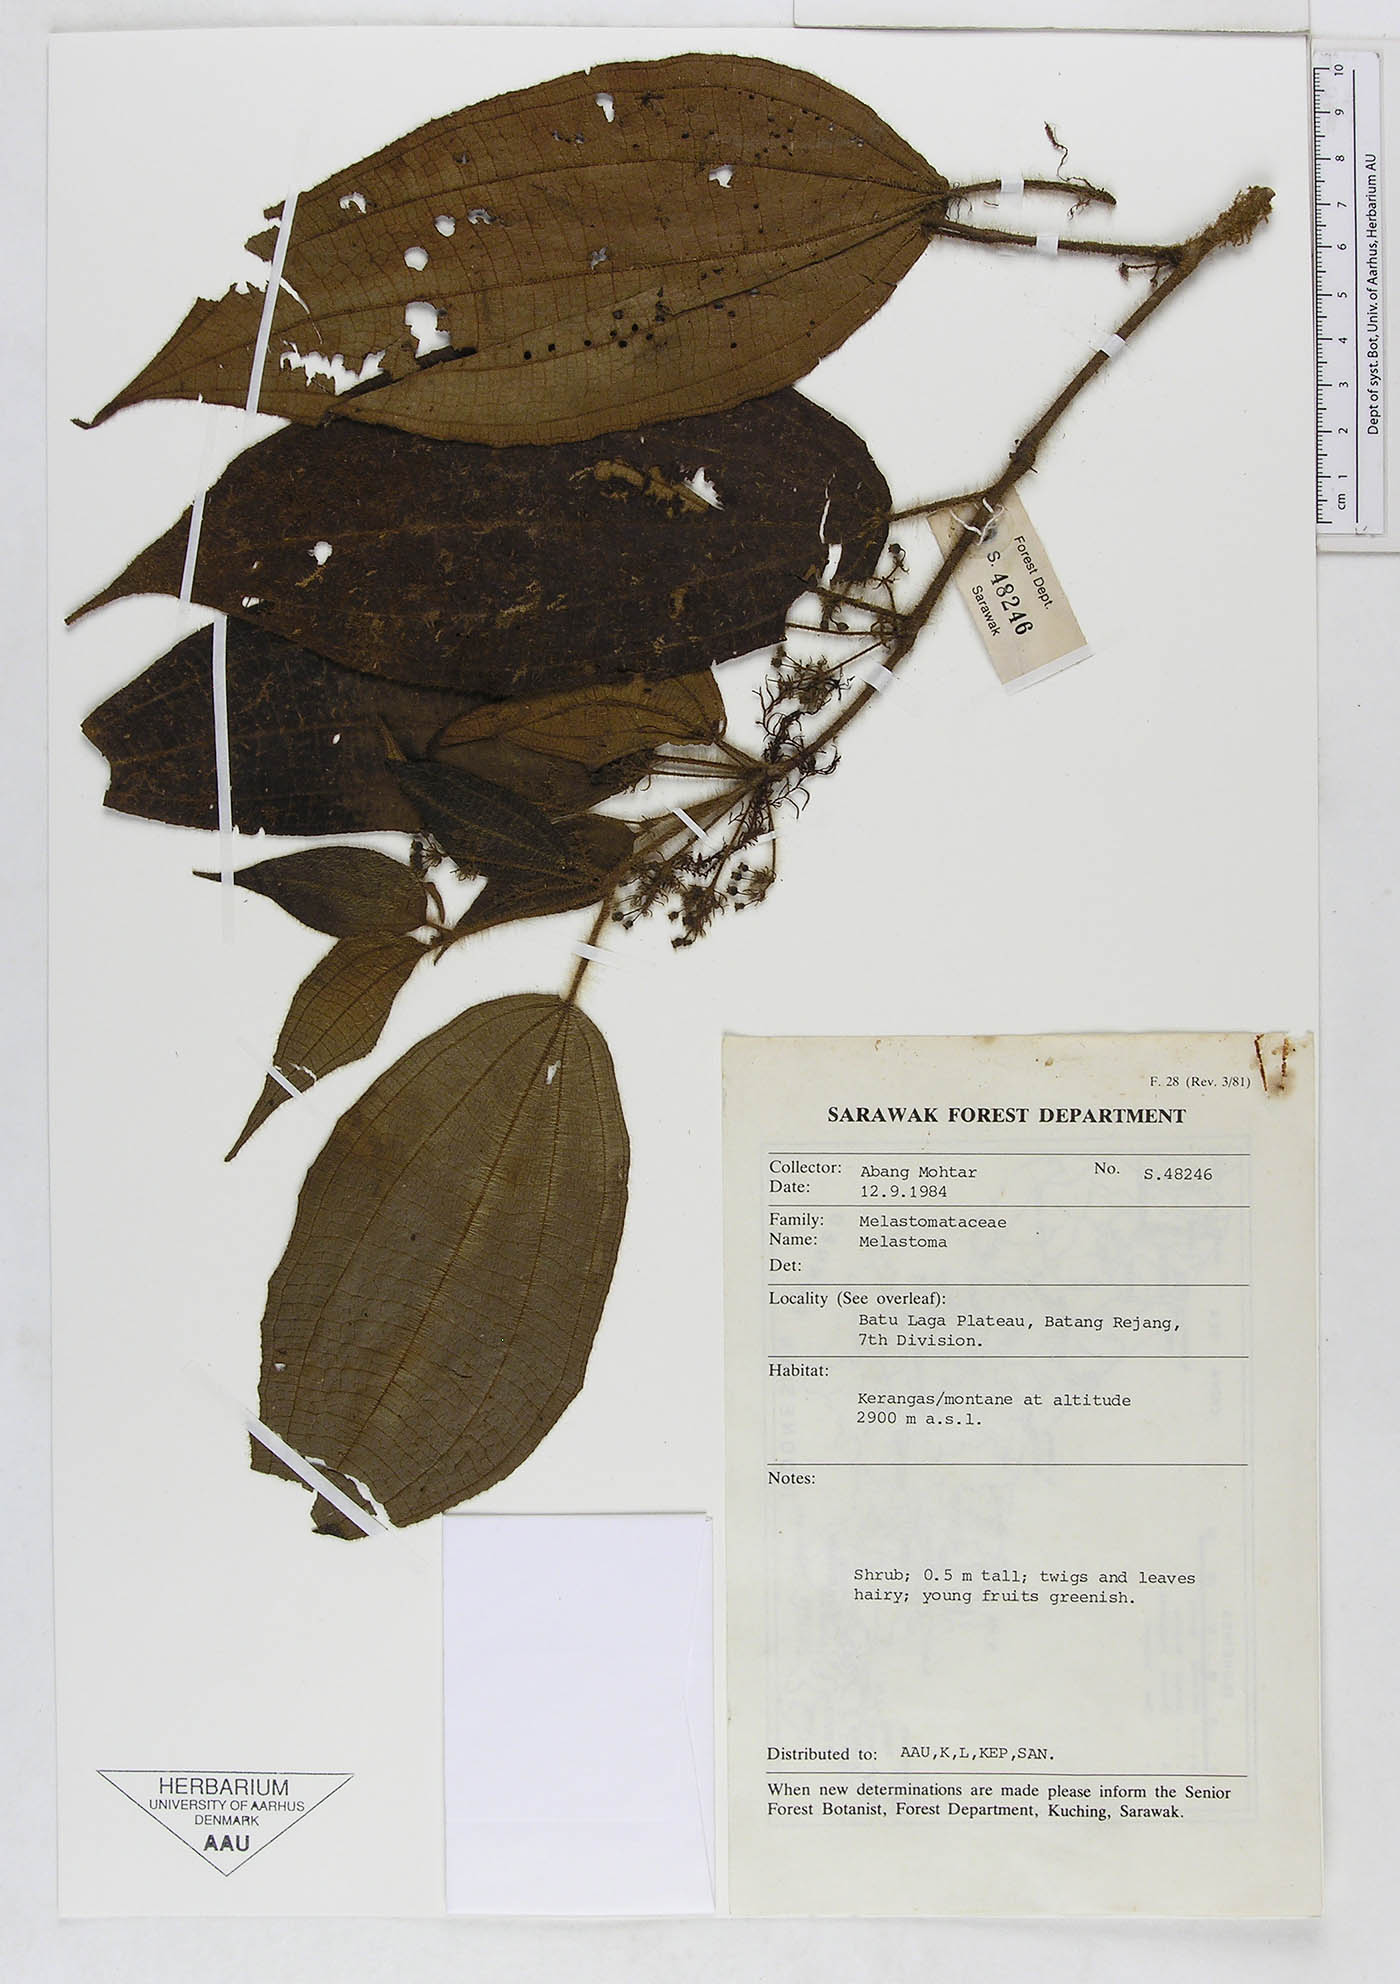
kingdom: Plantae
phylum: Tracheophyta
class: Magnoliopsida
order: Myrtales
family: Melastomataceae
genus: Melastoma
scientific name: Melastoma
